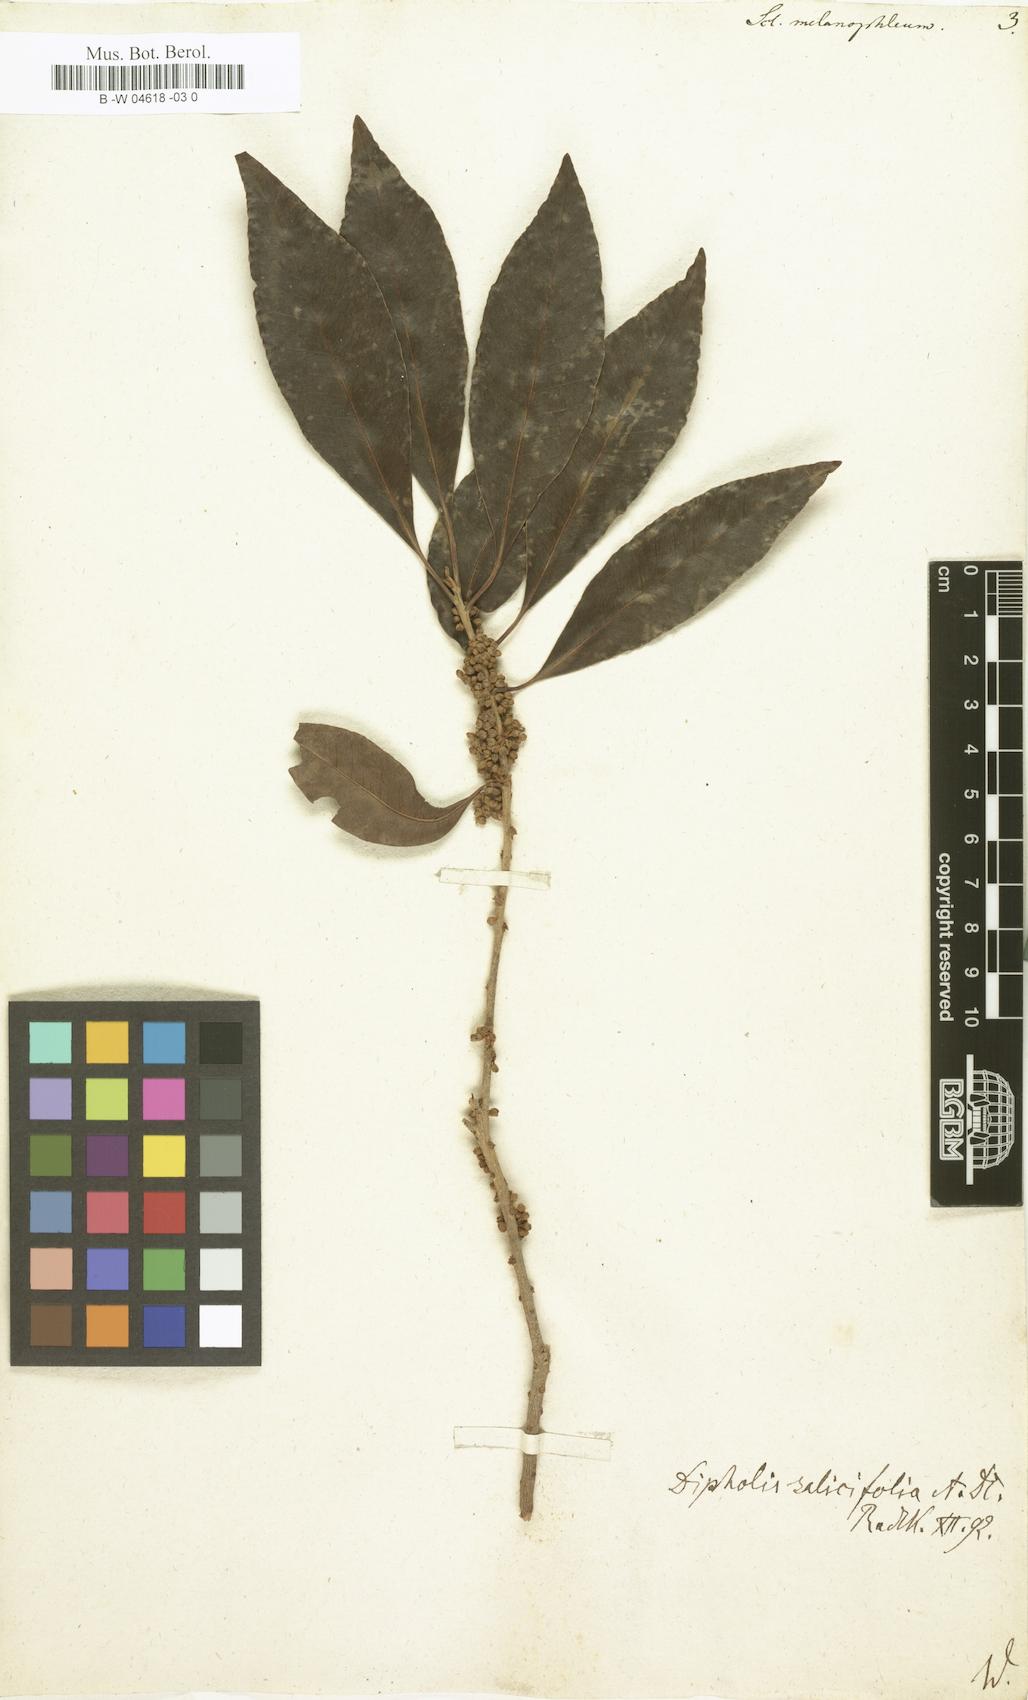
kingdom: Plantae
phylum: Tracheophyta
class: Magnoliopsida
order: Ericales
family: Sapotaceae
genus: Scleroxylon
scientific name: Scleroxylon
